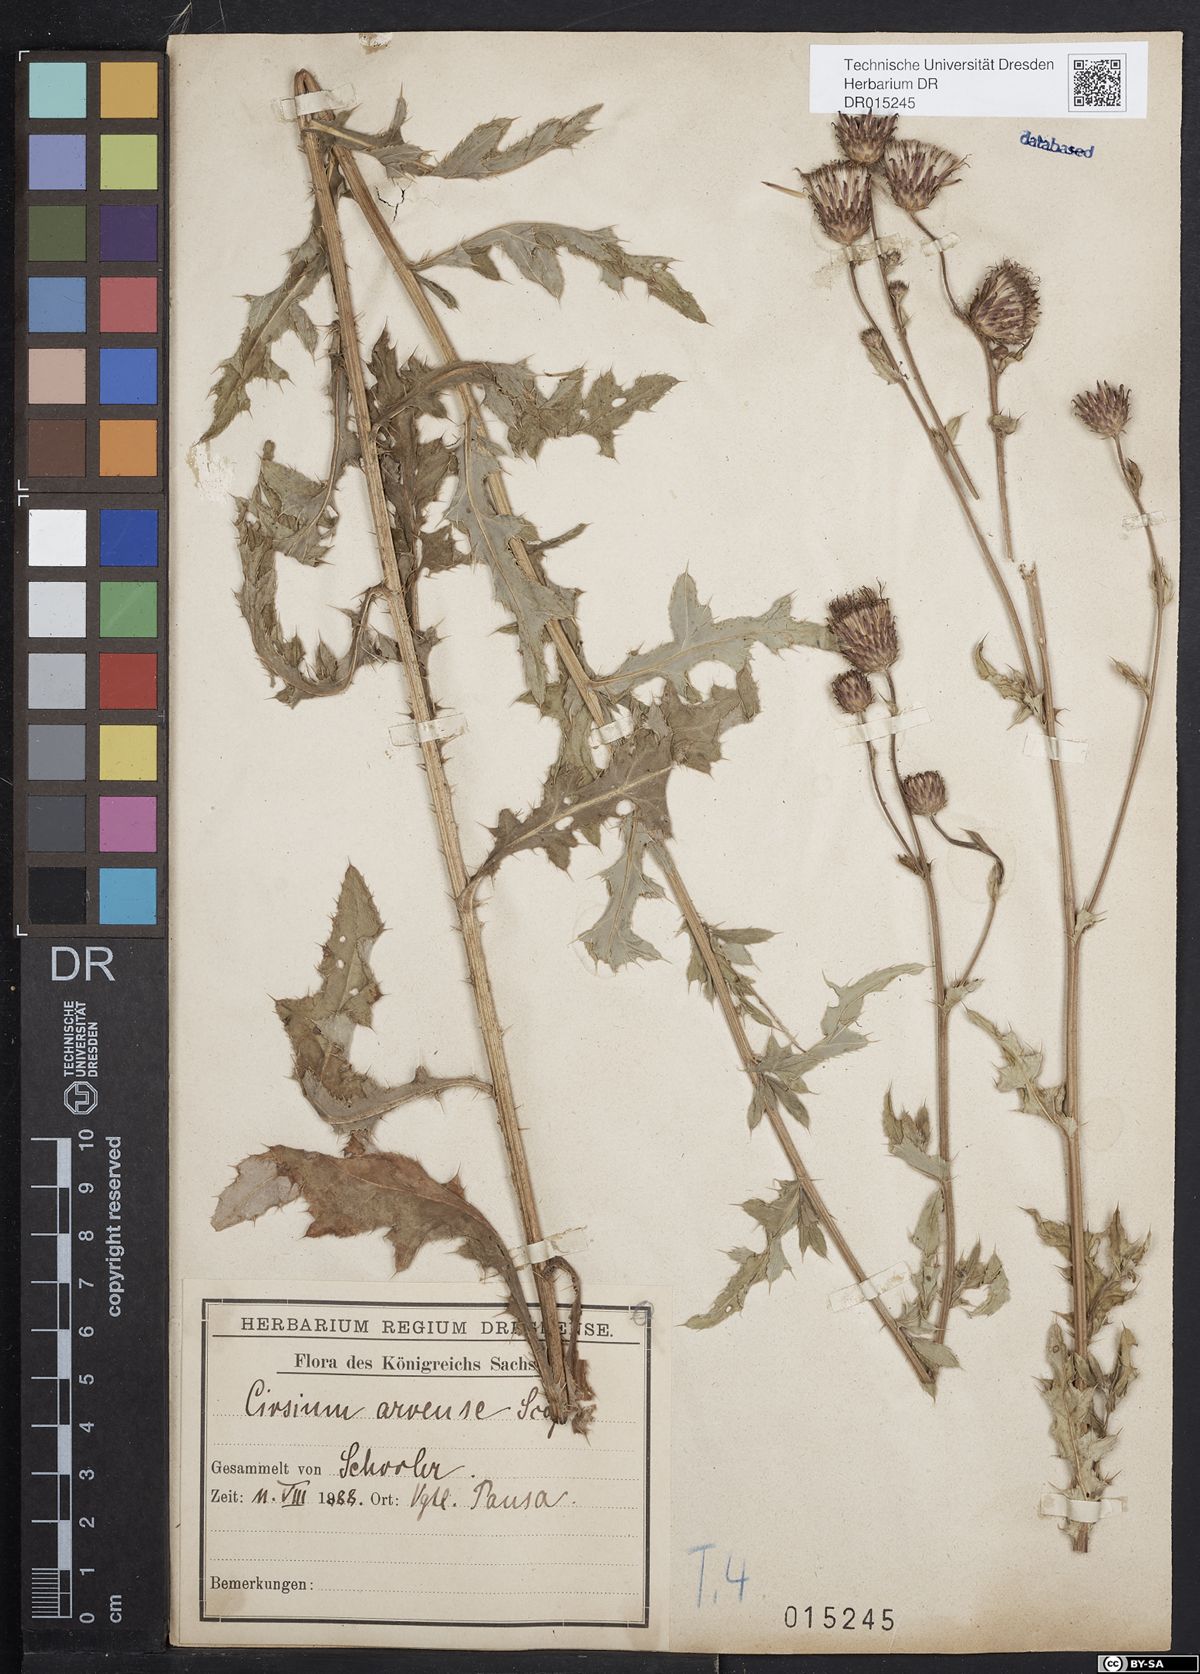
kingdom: Plantae
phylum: Tracheophyta
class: Magnoliopsida
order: Asterales
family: Asteraceae
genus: Cirsium
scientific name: Cirsium arvense
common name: Creeping thistle
